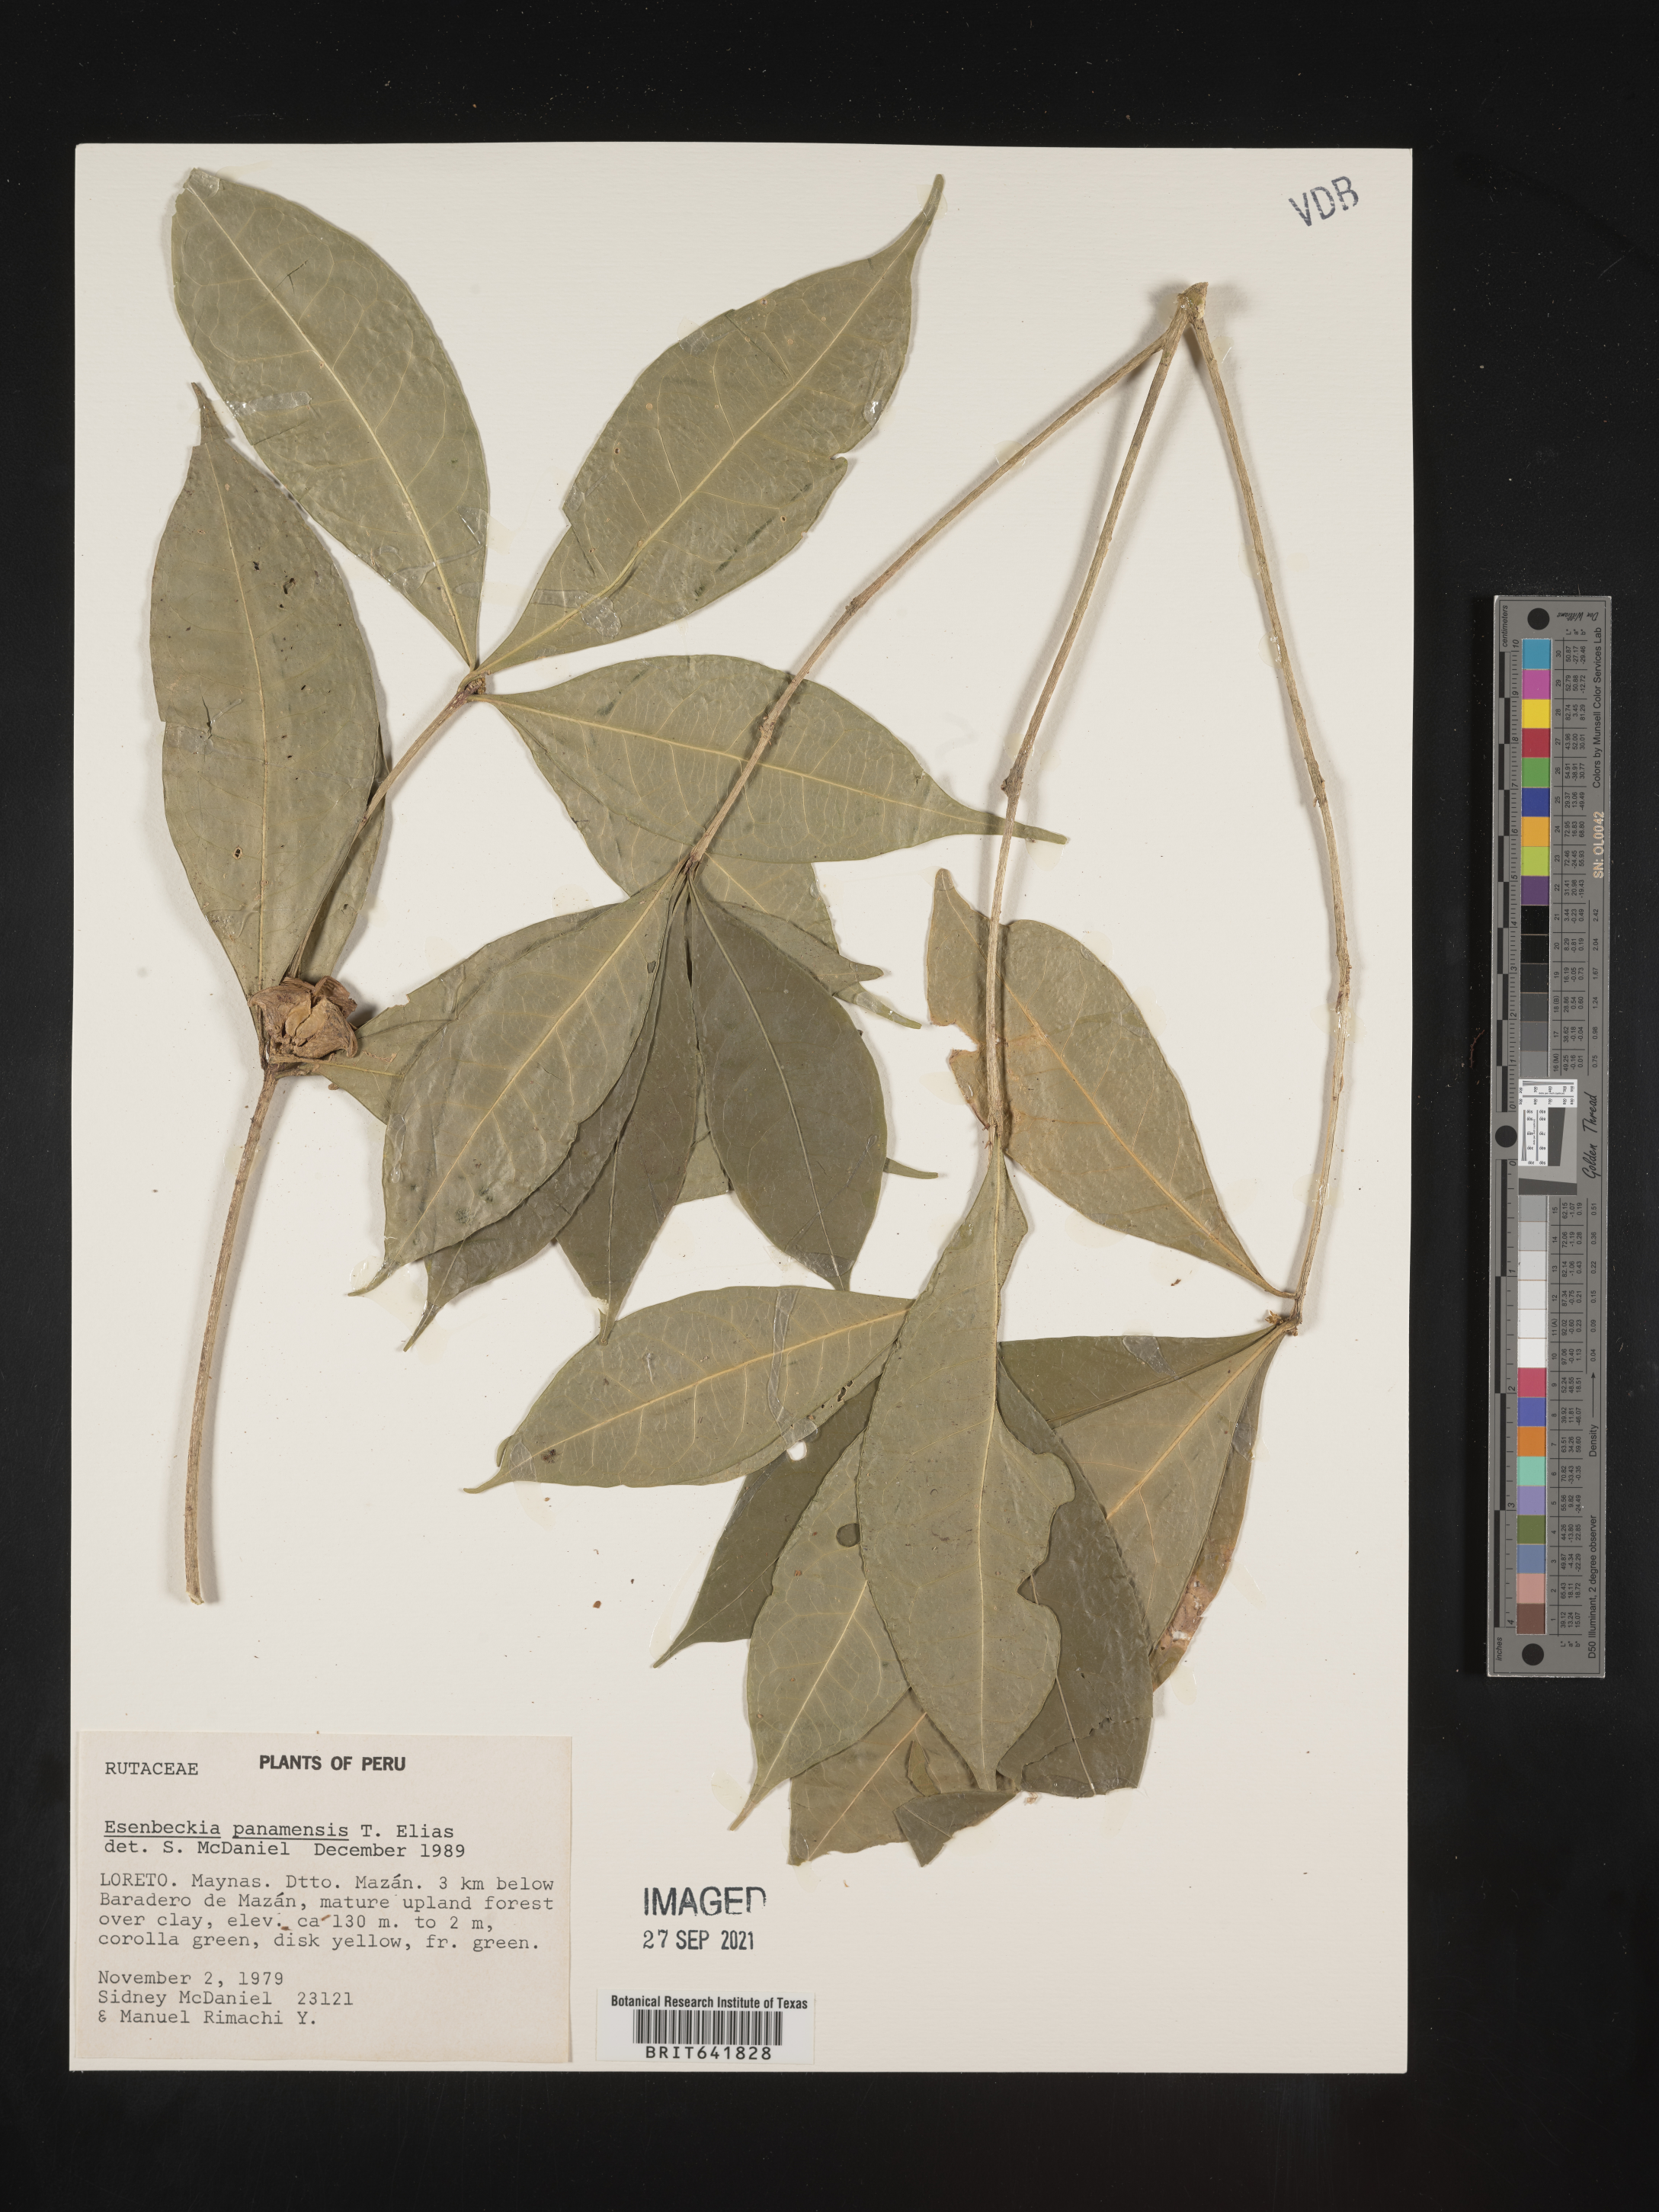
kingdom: Plantae
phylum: Tracheophyta
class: Magnoliopsida
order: Sapindales
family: Rutaceae
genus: Esenbeckia
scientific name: Esenbeckia
